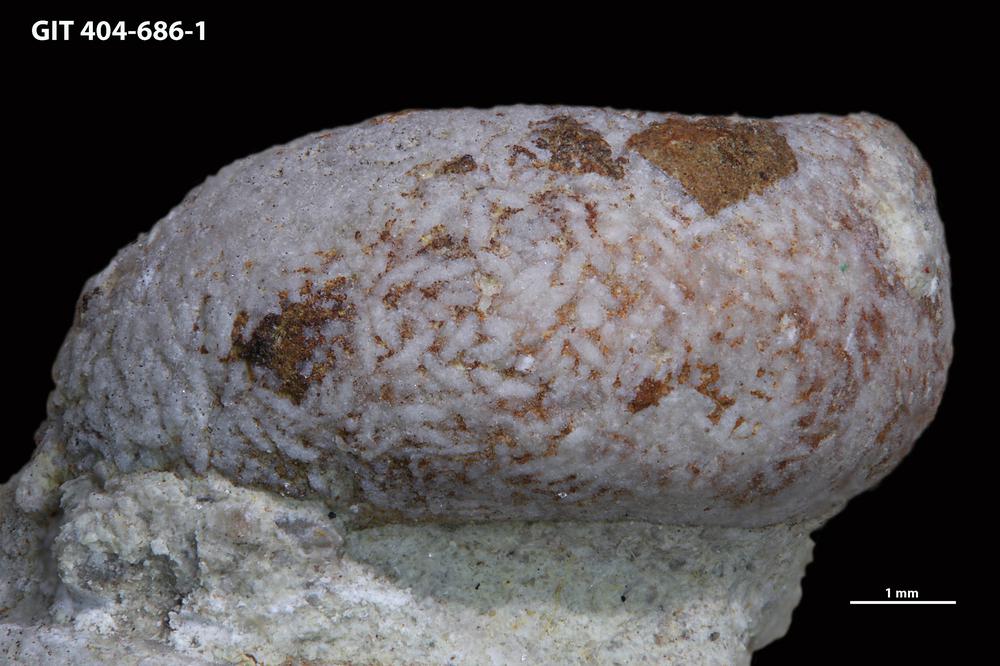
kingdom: Animalia
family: Coprulidae
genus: Coprulus
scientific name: Coprulus
